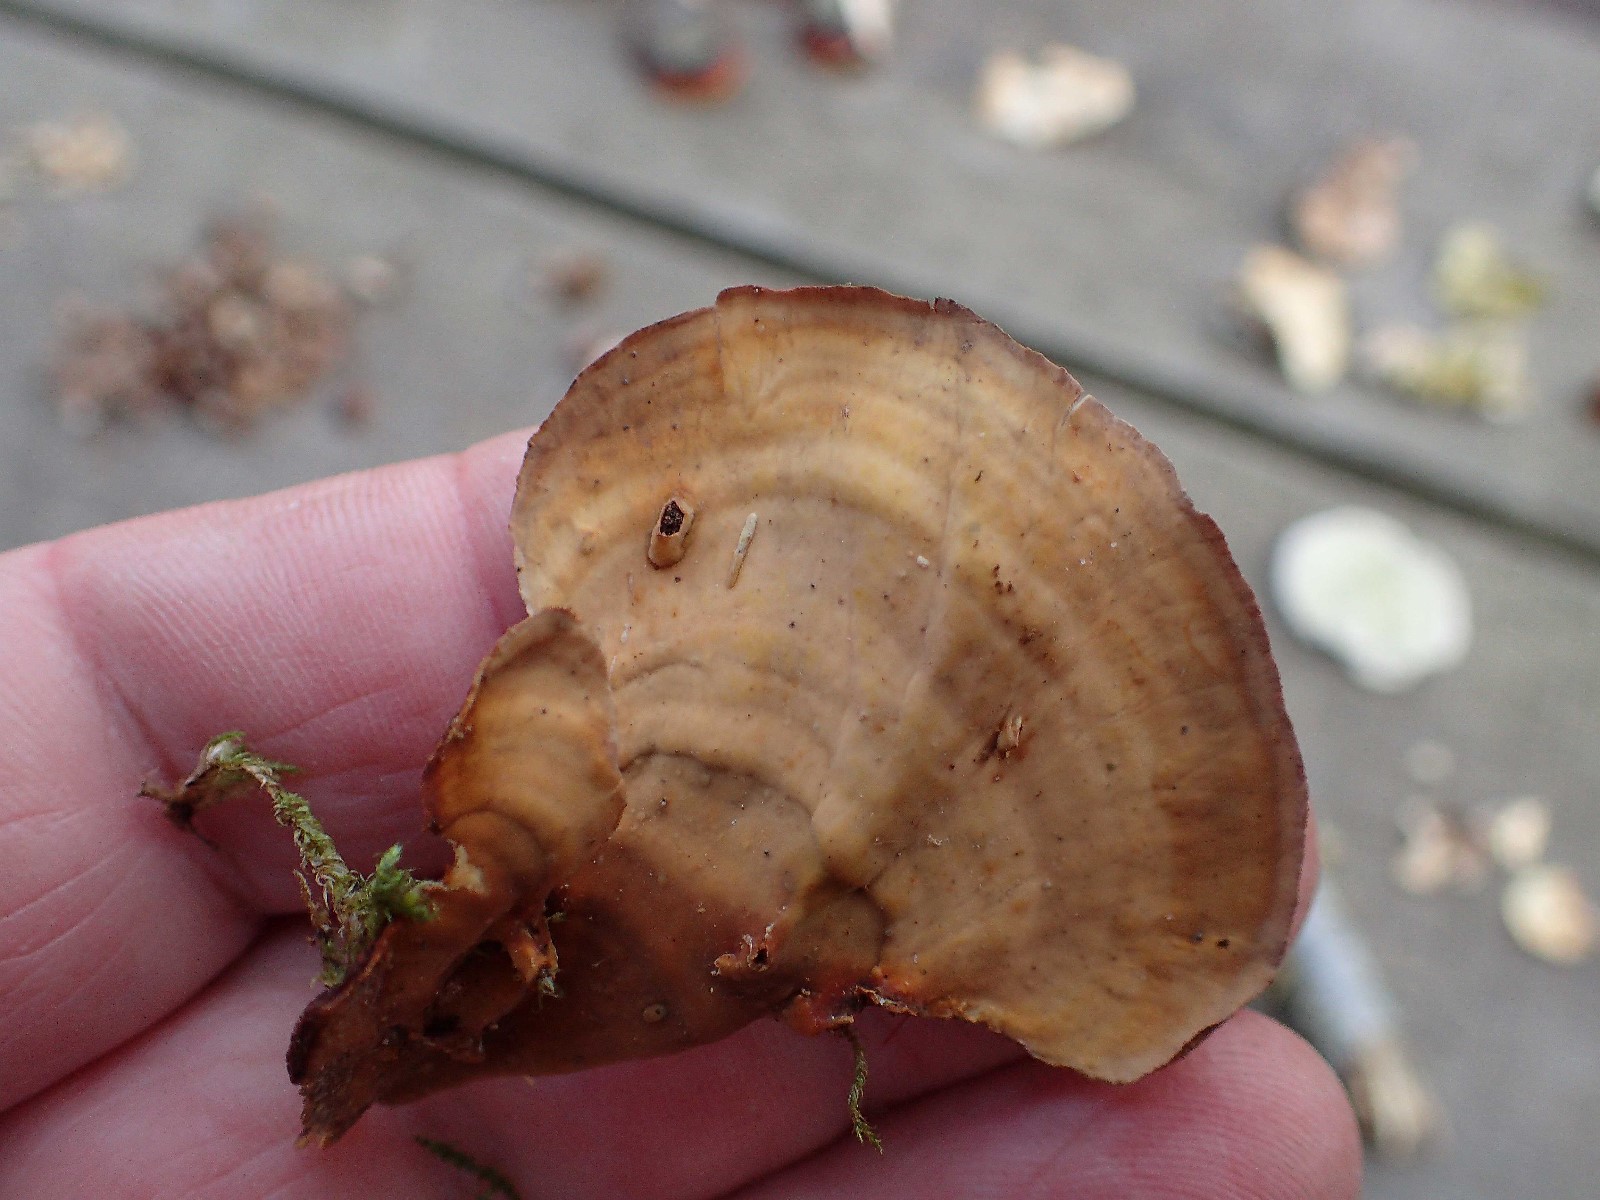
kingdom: Fungi
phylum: Basidiomycota
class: Agaricomycetes
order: Russulales
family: Stereaceae
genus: Stereum
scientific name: Stereum subtomentosum
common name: smuk lædersvamp
